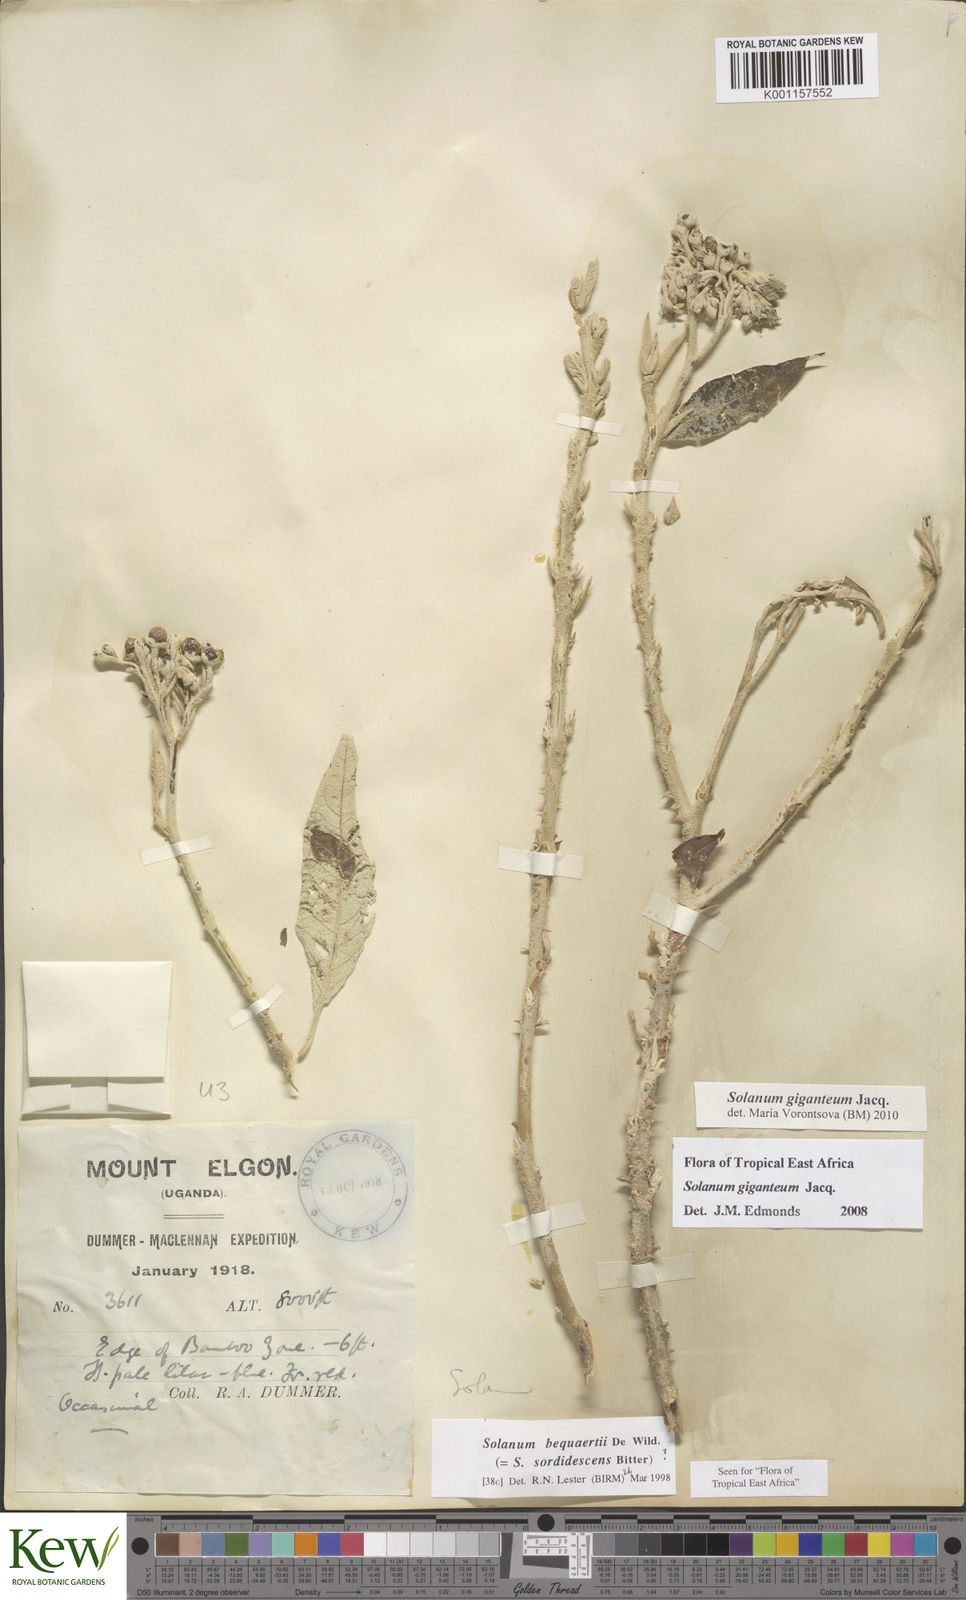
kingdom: Plantae
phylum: Tracheophyta
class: Magnoliopsida
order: Solanales
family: Solanaceae
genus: Solanum
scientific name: Solanum giganteum
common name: Healing-leaf-tree
